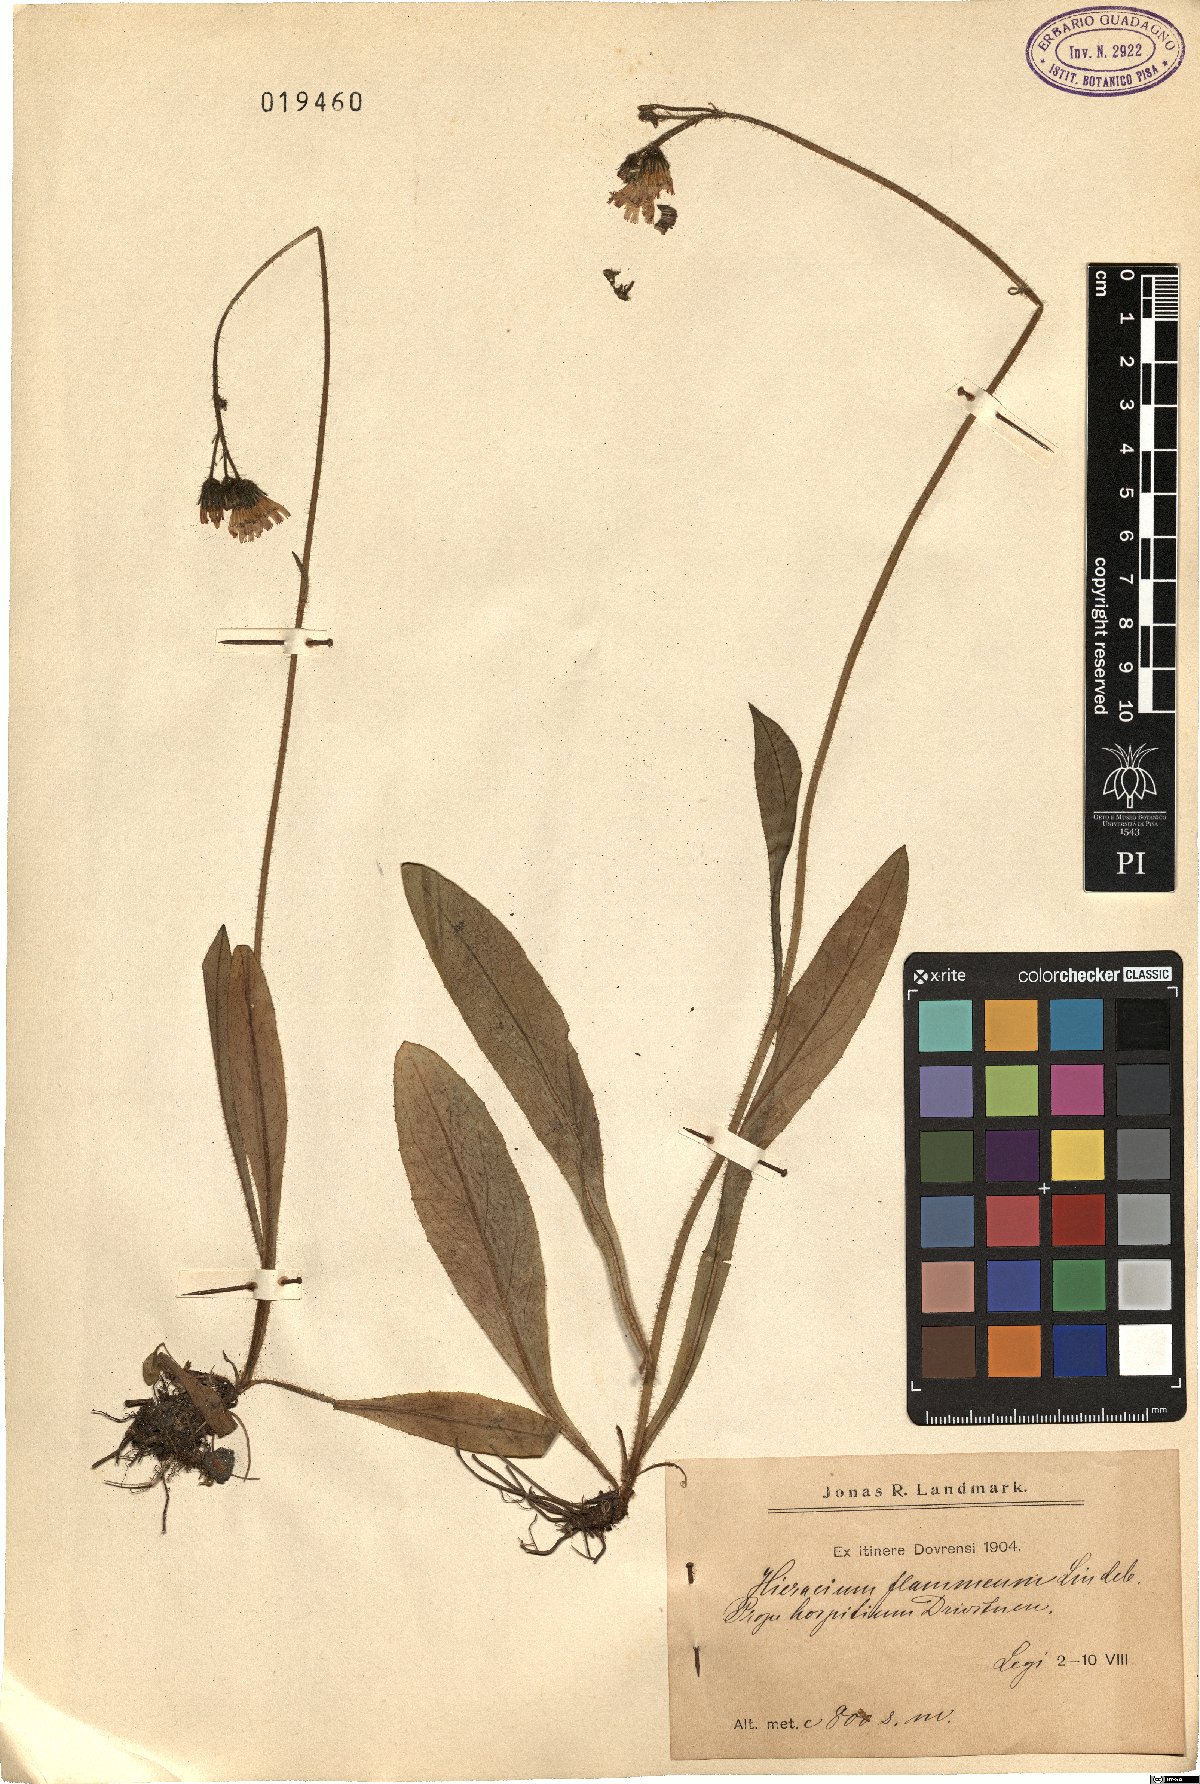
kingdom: Plantae
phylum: Tracheophyta
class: Magnoliopsida
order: Asterales
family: Asteraceae
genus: Pilosella
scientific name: Pilosella fuscoatra
